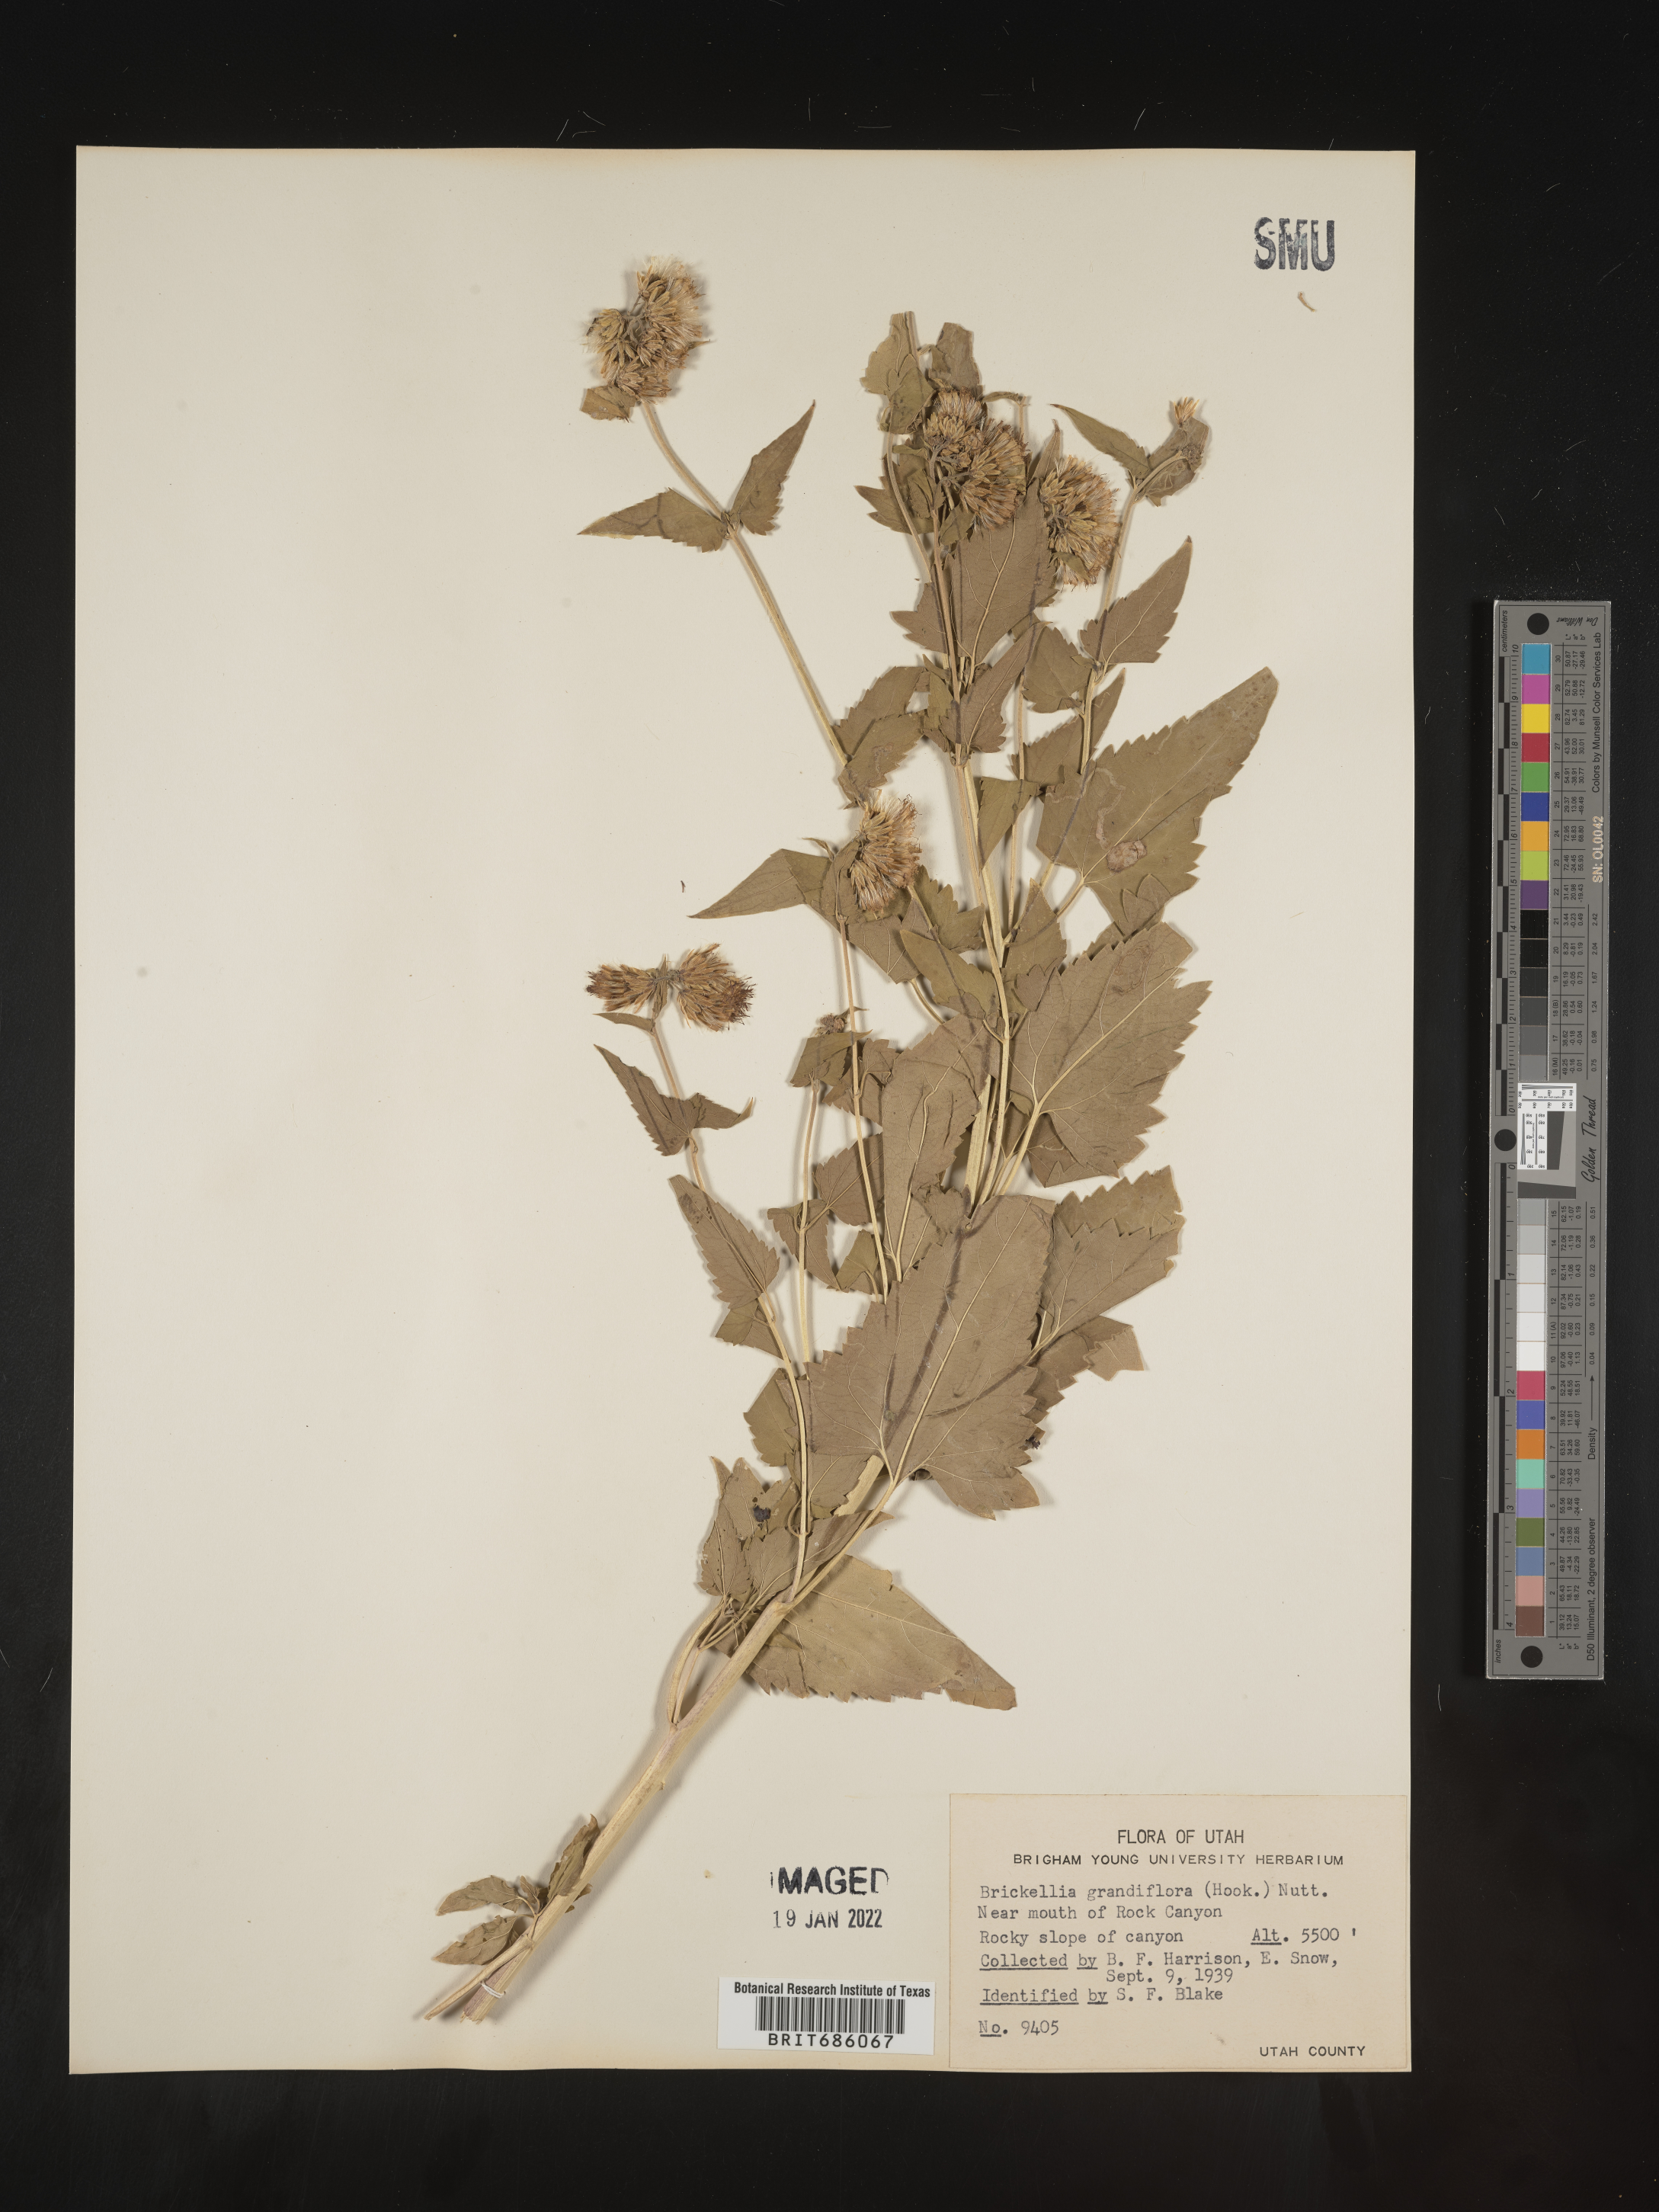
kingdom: Plantae
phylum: Tracheophyta
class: Magnoliopsida
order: Asterales
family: Asteraceae
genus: Brickellia
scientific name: Brickellia grandiflora
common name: Large-flowered brickellia
